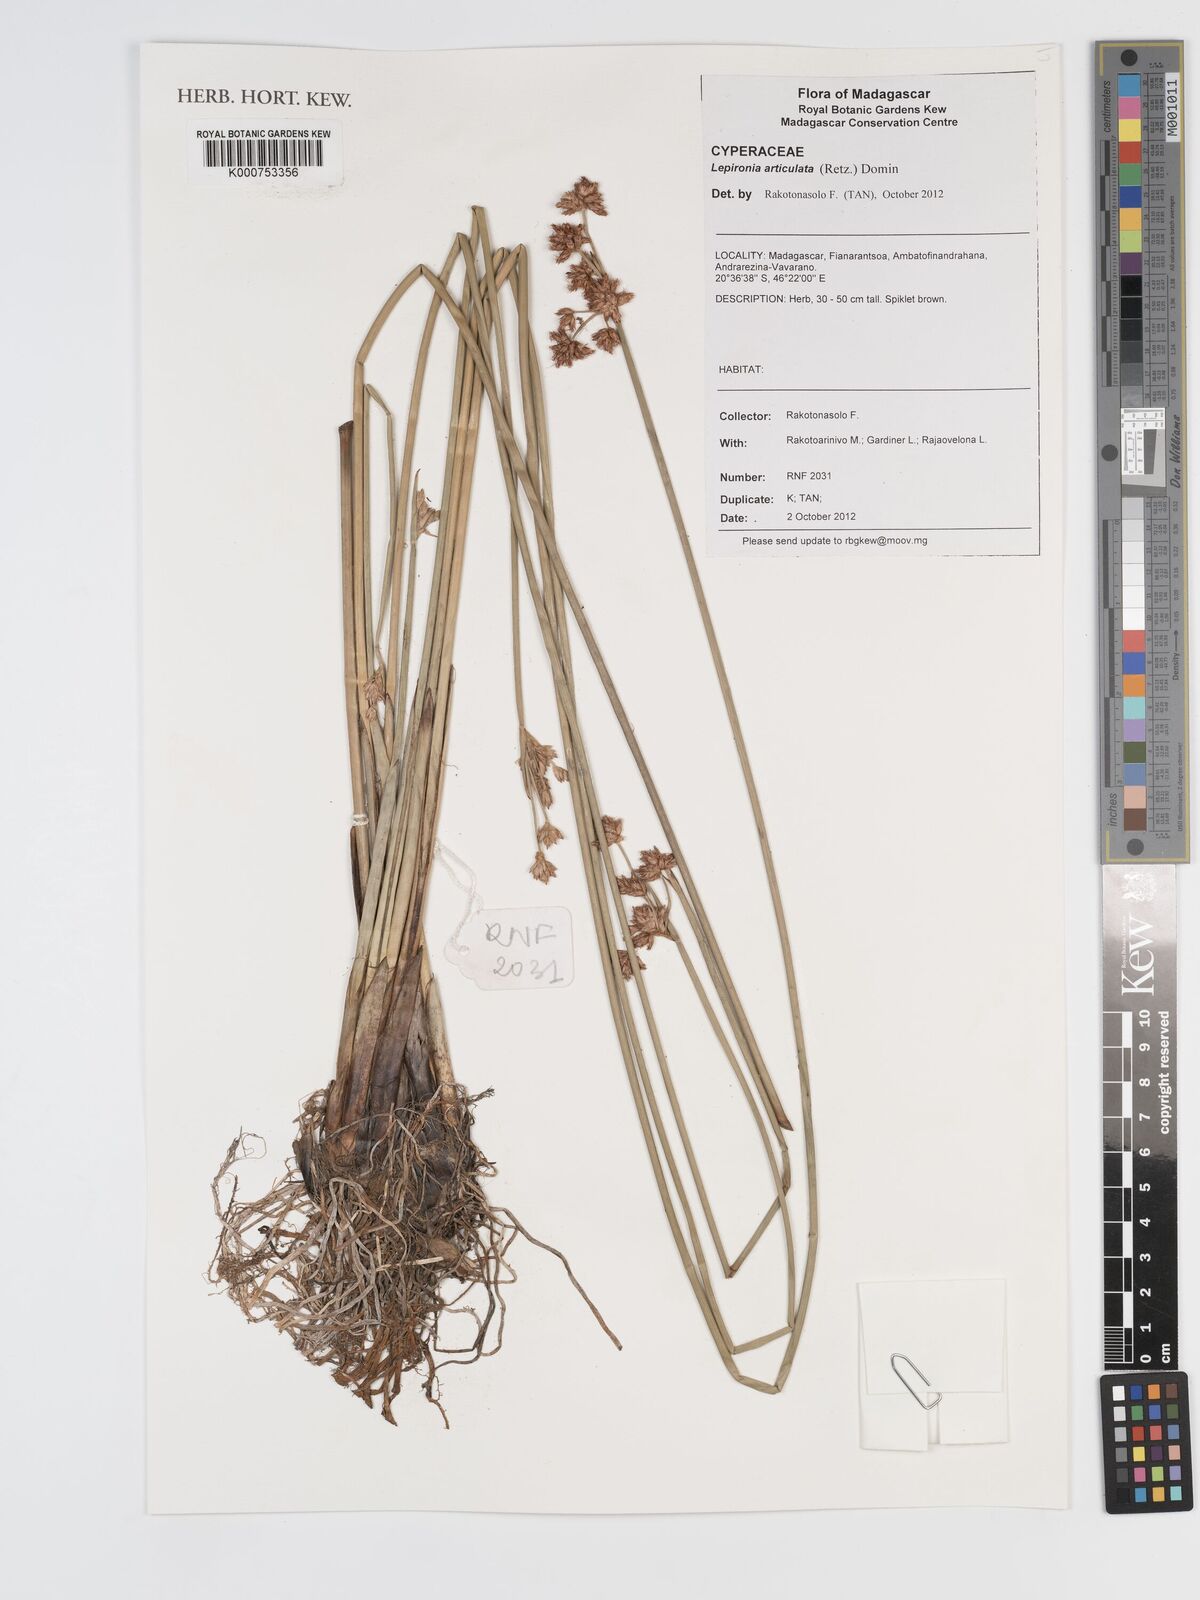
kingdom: Plantae
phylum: Tracheophyta
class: Liliopsida
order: Poales
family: Cyperaceae
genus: Lepironia
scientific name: Lepironia articulata
